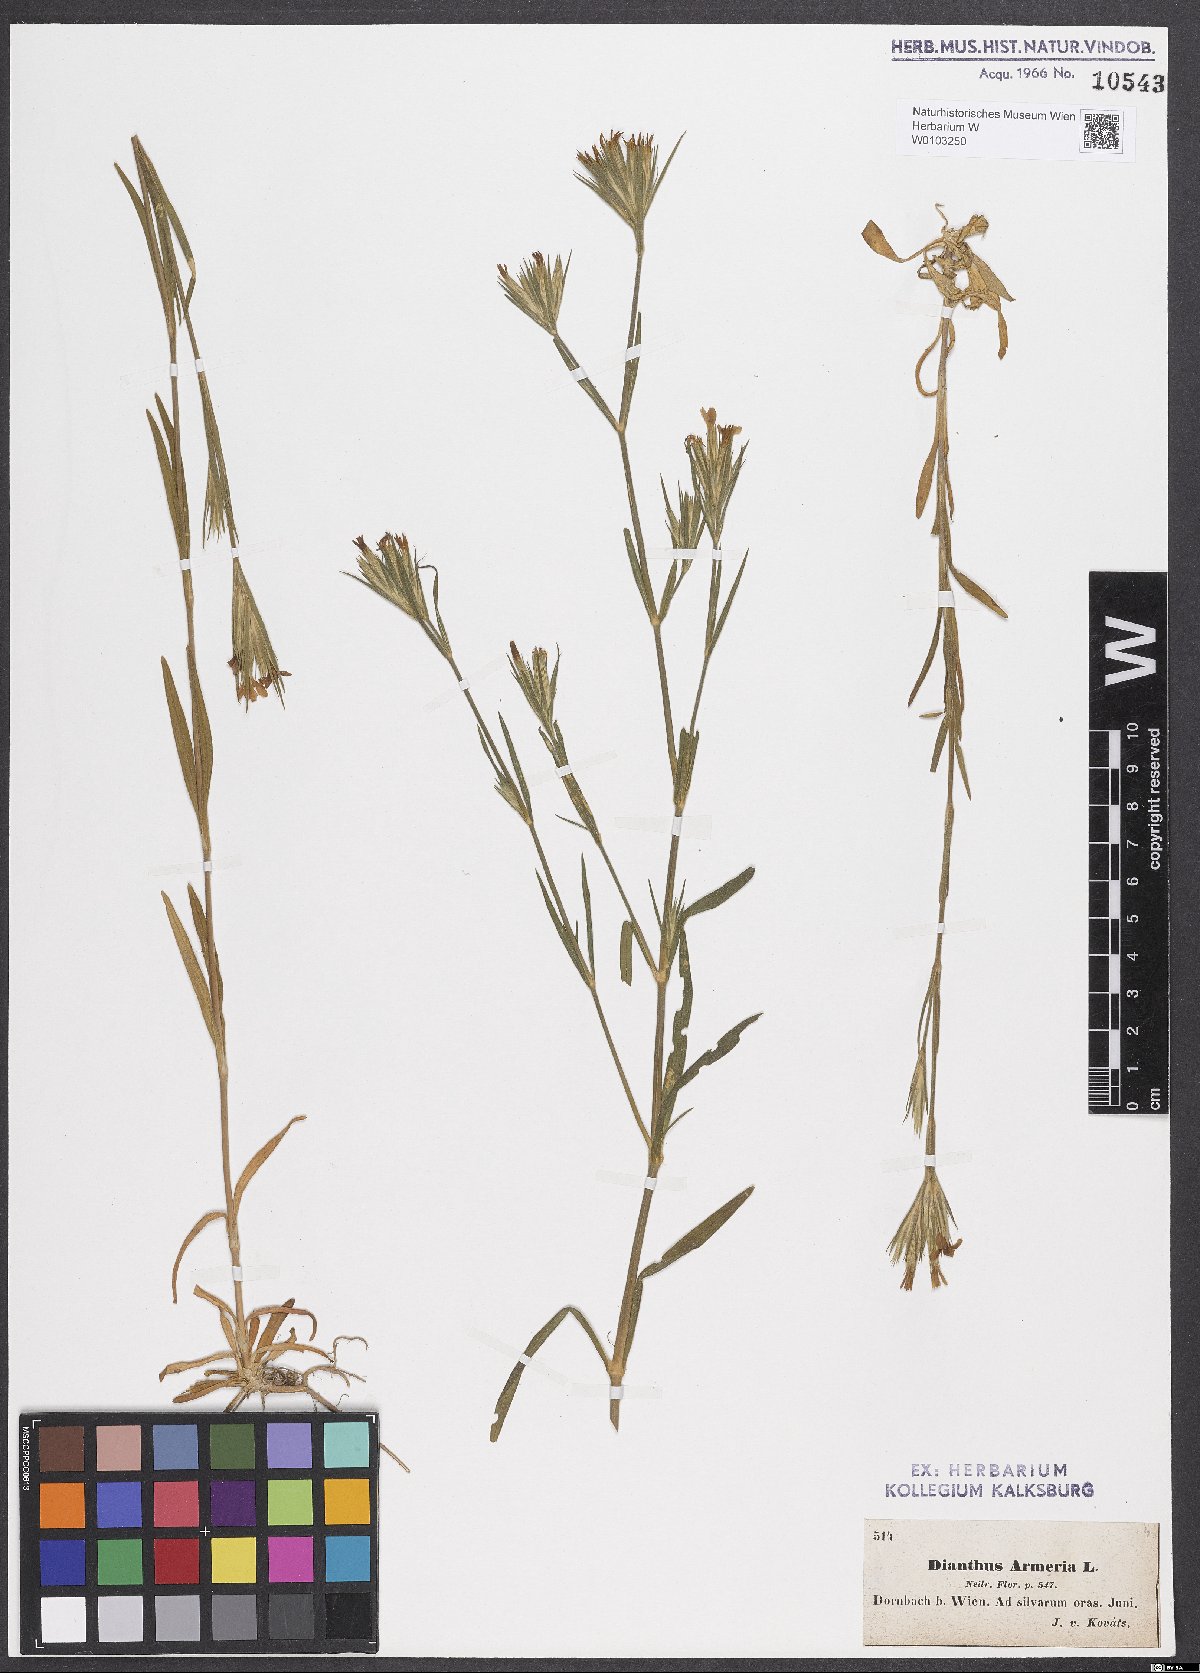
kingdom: Plantae
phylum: Tracheophyta
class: Magnoliopsida
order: Caryophyllales
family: Caryophyllaceae
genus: Dianthus
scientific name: Dianthus armeria
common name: Deptford pink
